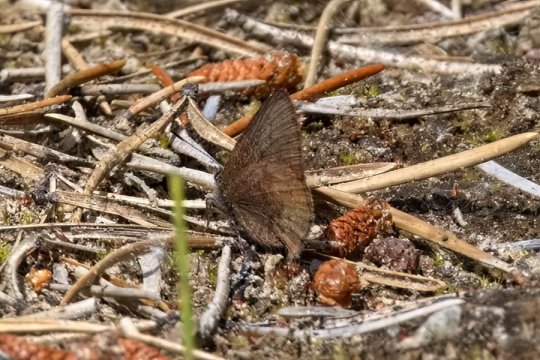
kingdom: Animalia
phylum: Arthropoda
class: Insecta
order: Lepidoptera
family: Lycaenidae
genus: Incisalia
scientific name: Incisalia irioides
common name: Brown Elfin
